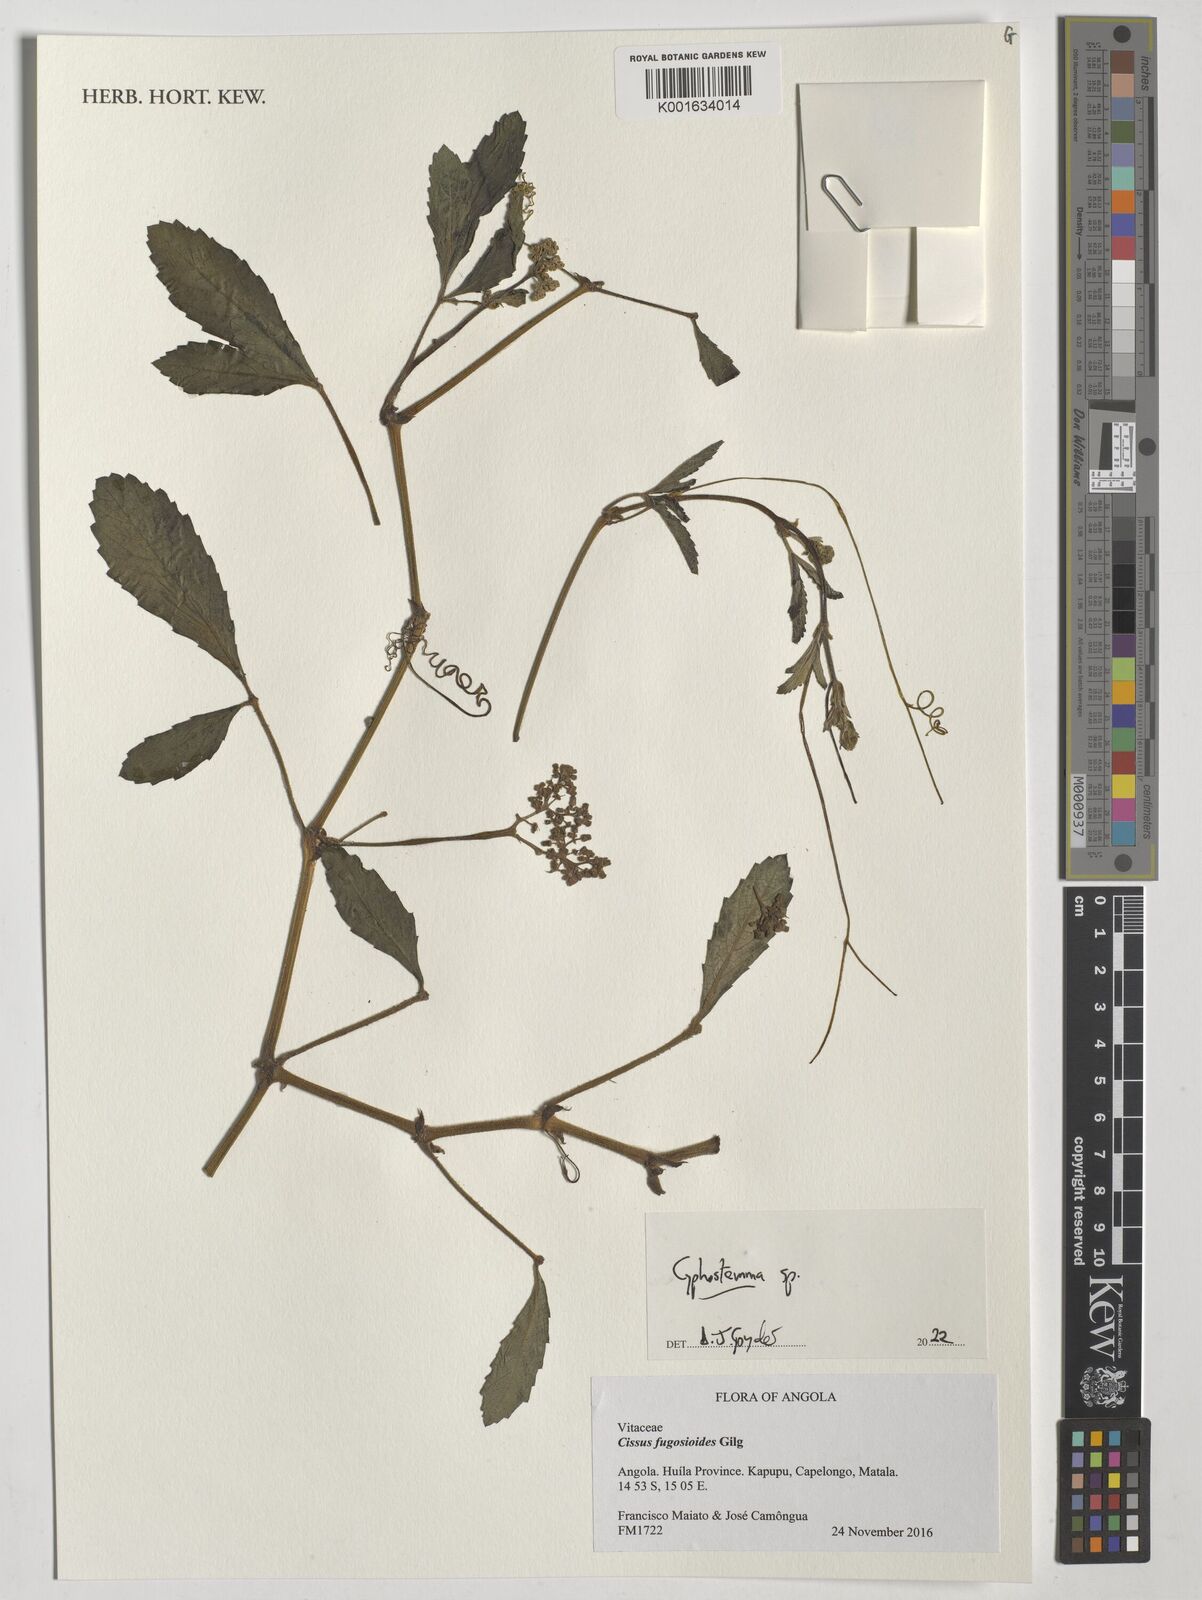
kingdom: Plantae
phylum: Tracheophyta
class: Magnoliopsida
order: Vitales
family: Vitaceae
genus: Cyphostemma
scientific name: Cyphostemma
